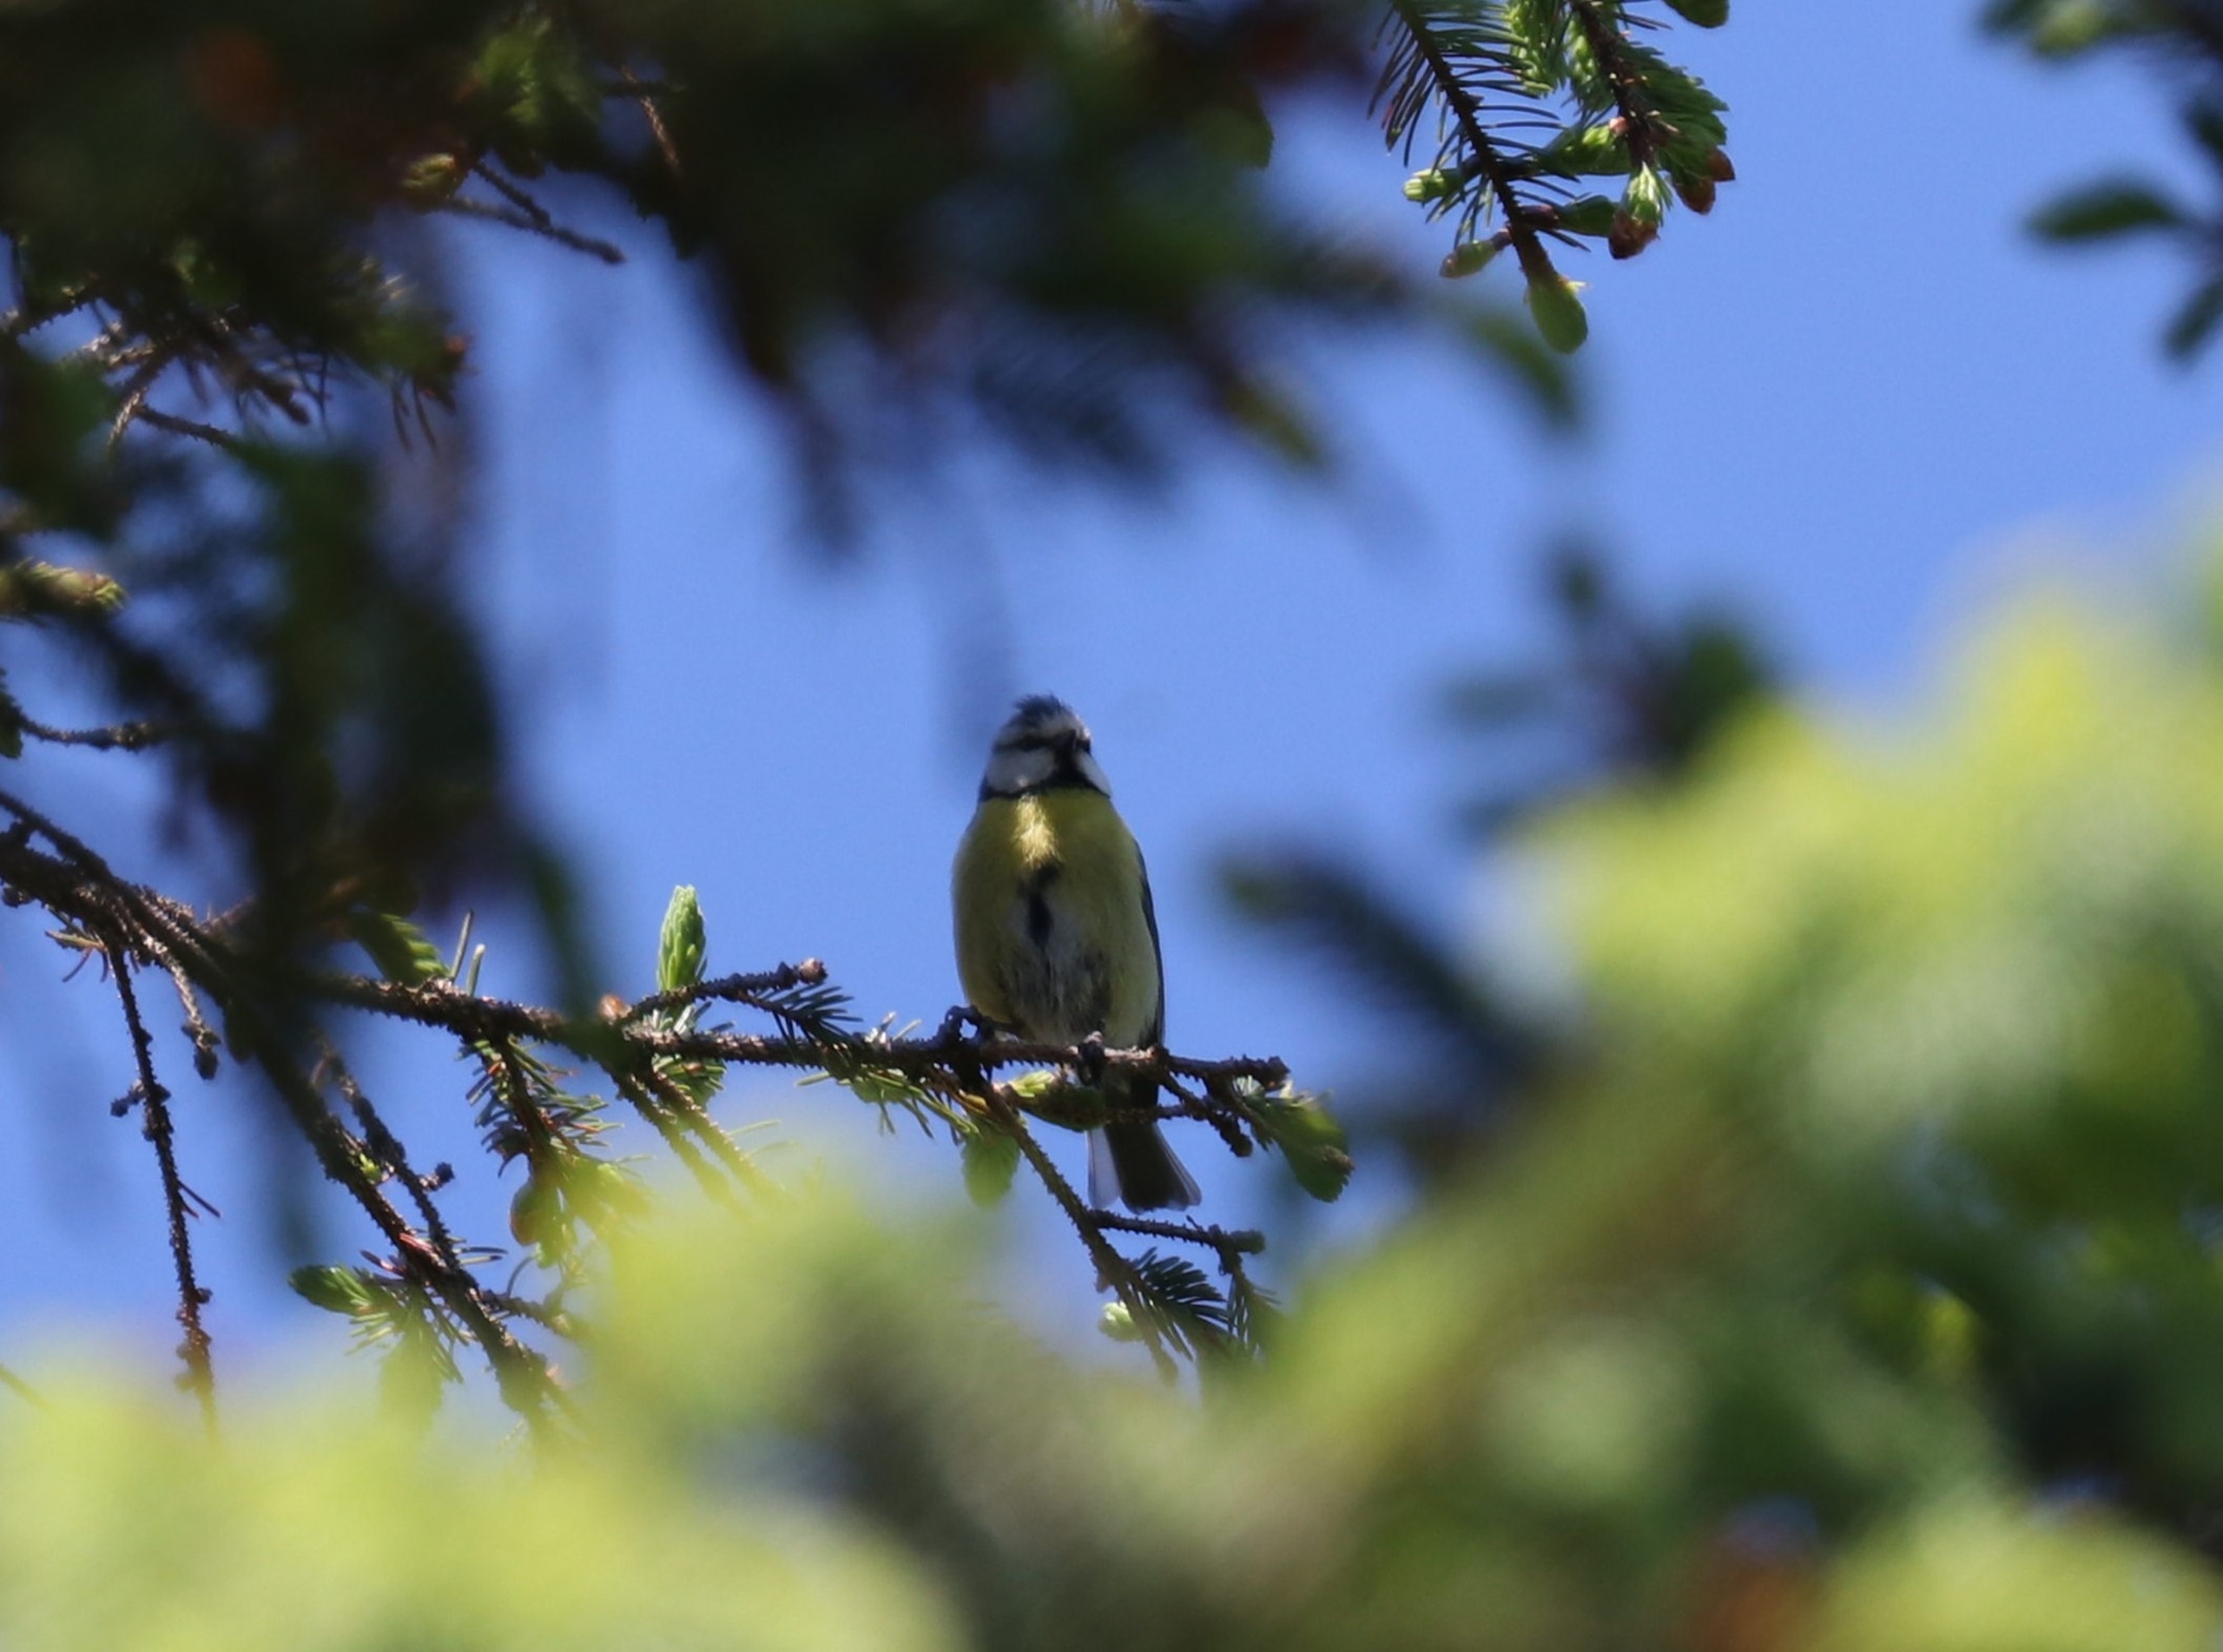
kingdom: Animalia
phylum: Chordata
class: Aves
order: Passeriformes
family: Paridae
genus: Cyanistes
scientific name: Cyanistes caeruleus
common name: Blåmejse
